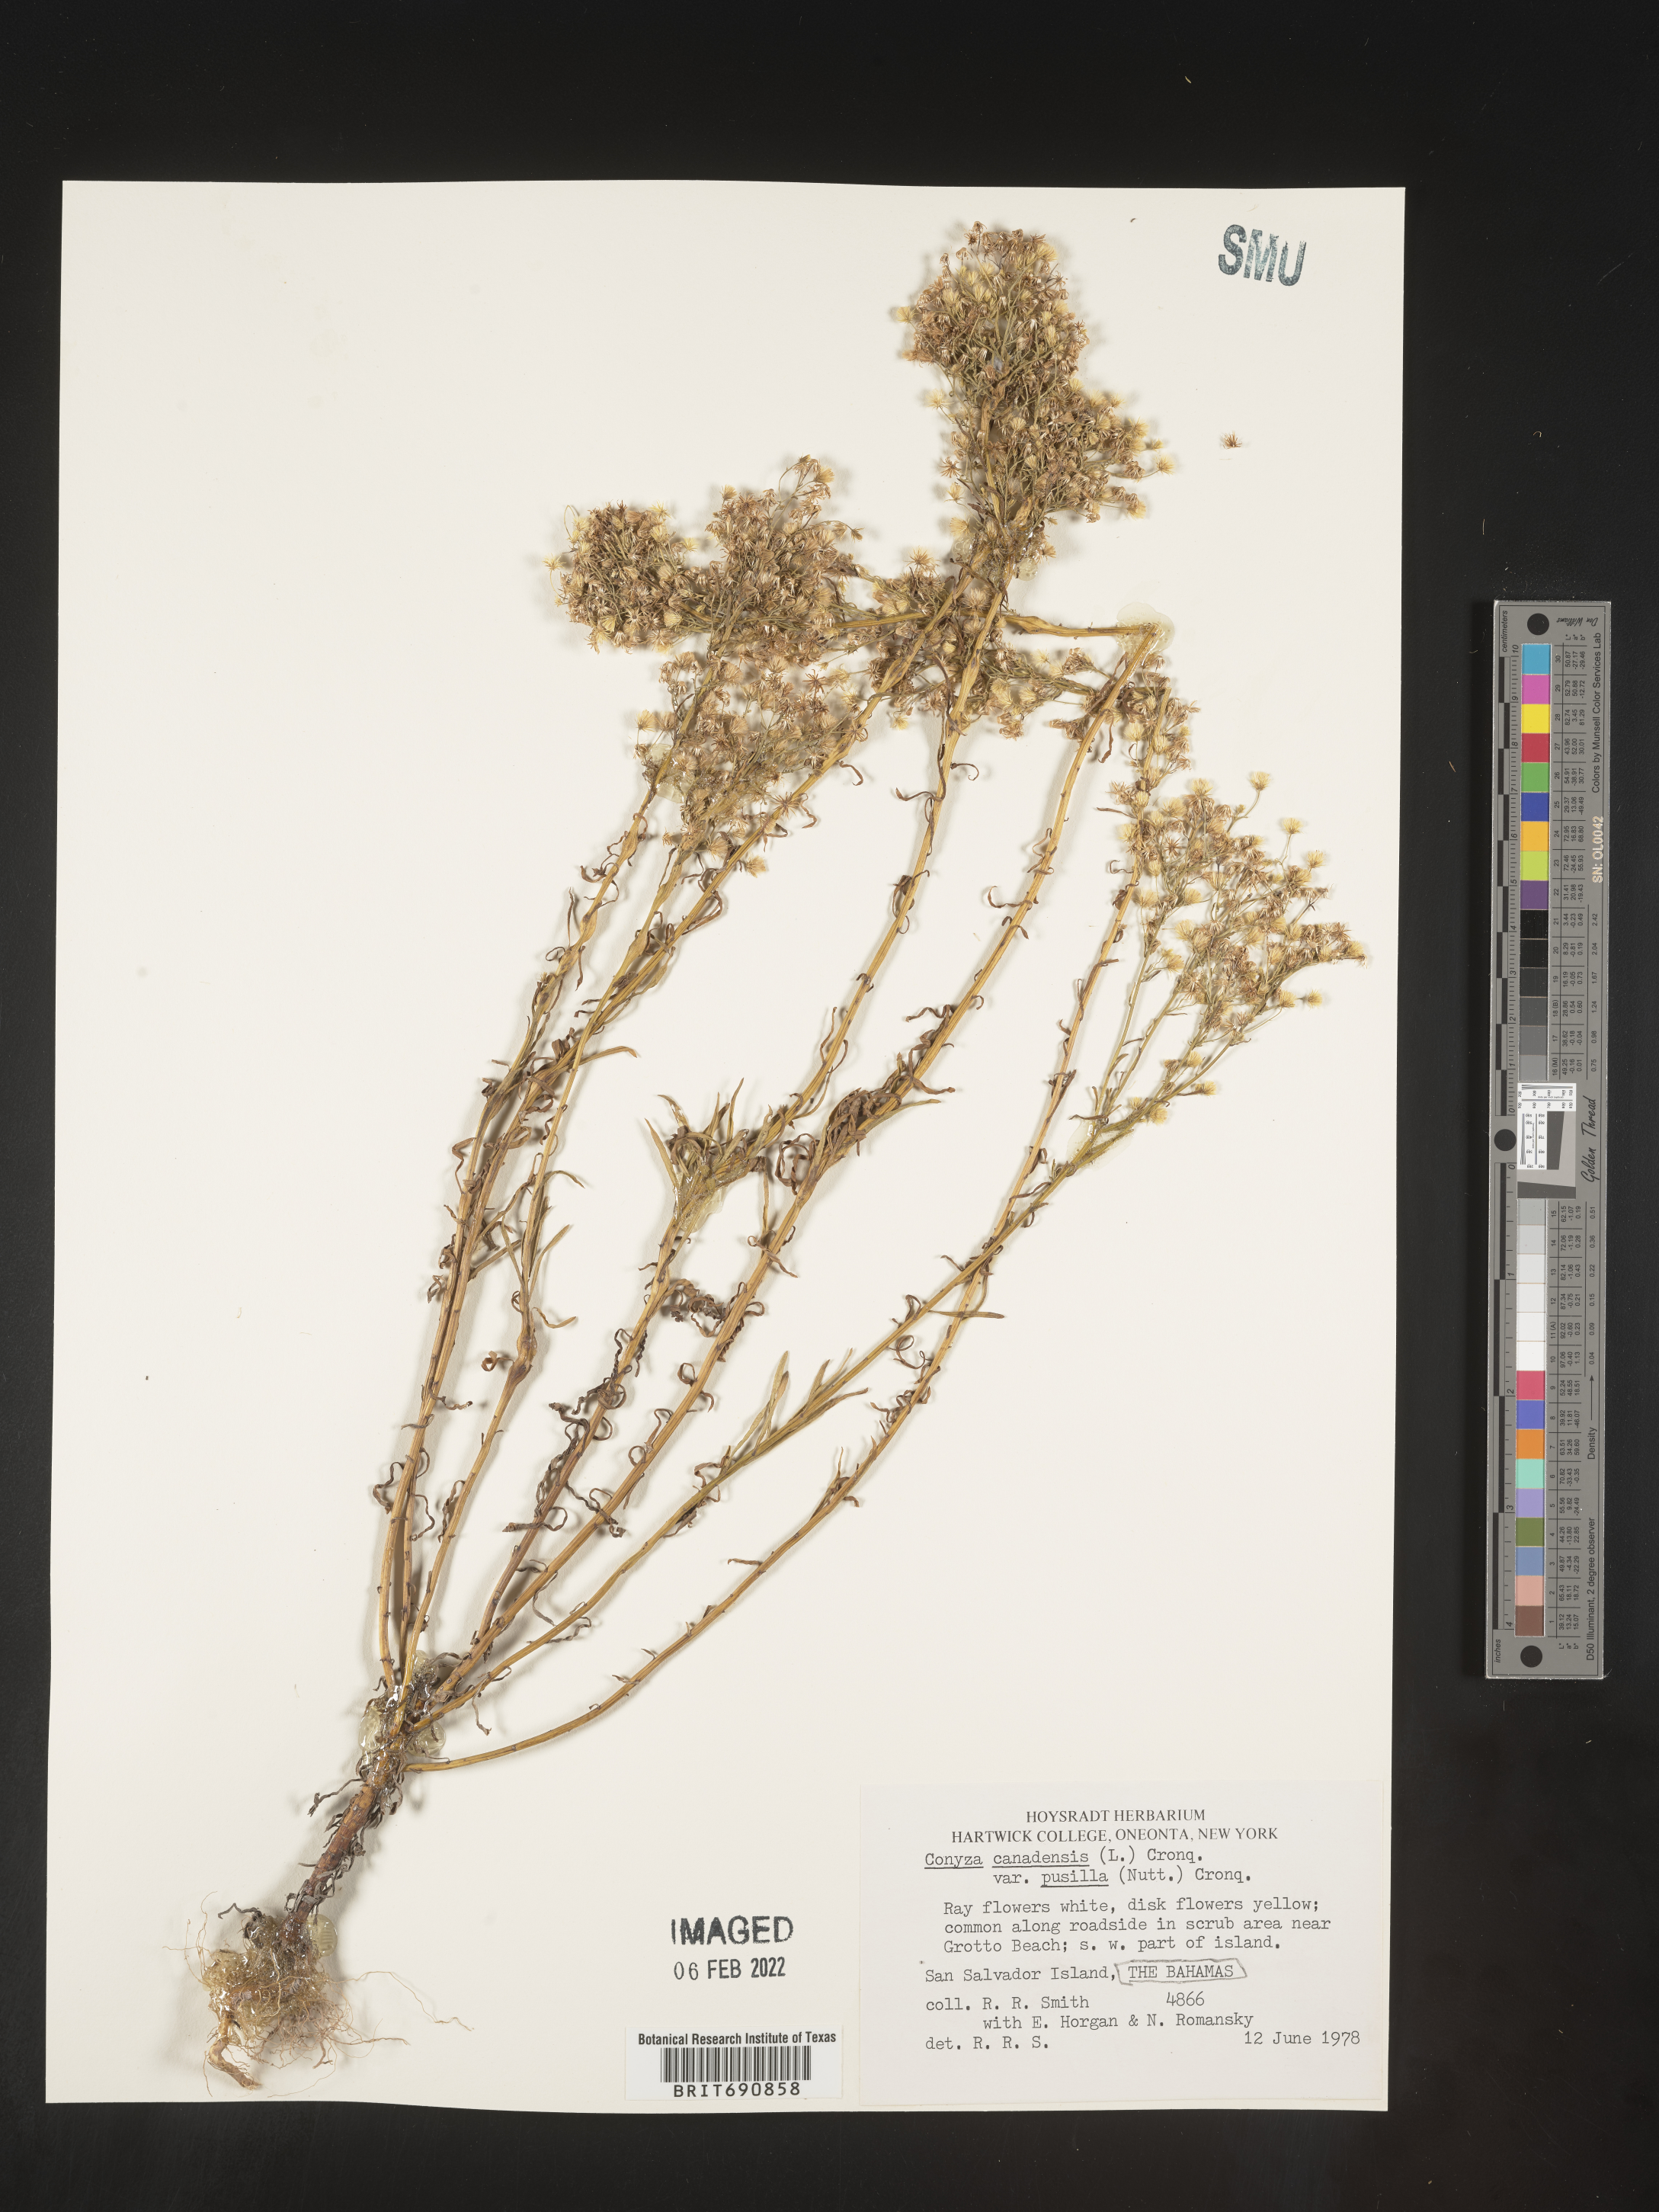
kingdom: Plantae
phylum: Tracheophyta
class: Magnoliopsida
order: Asterales
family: Asteraceae
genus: Conyza
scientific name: Conyza
